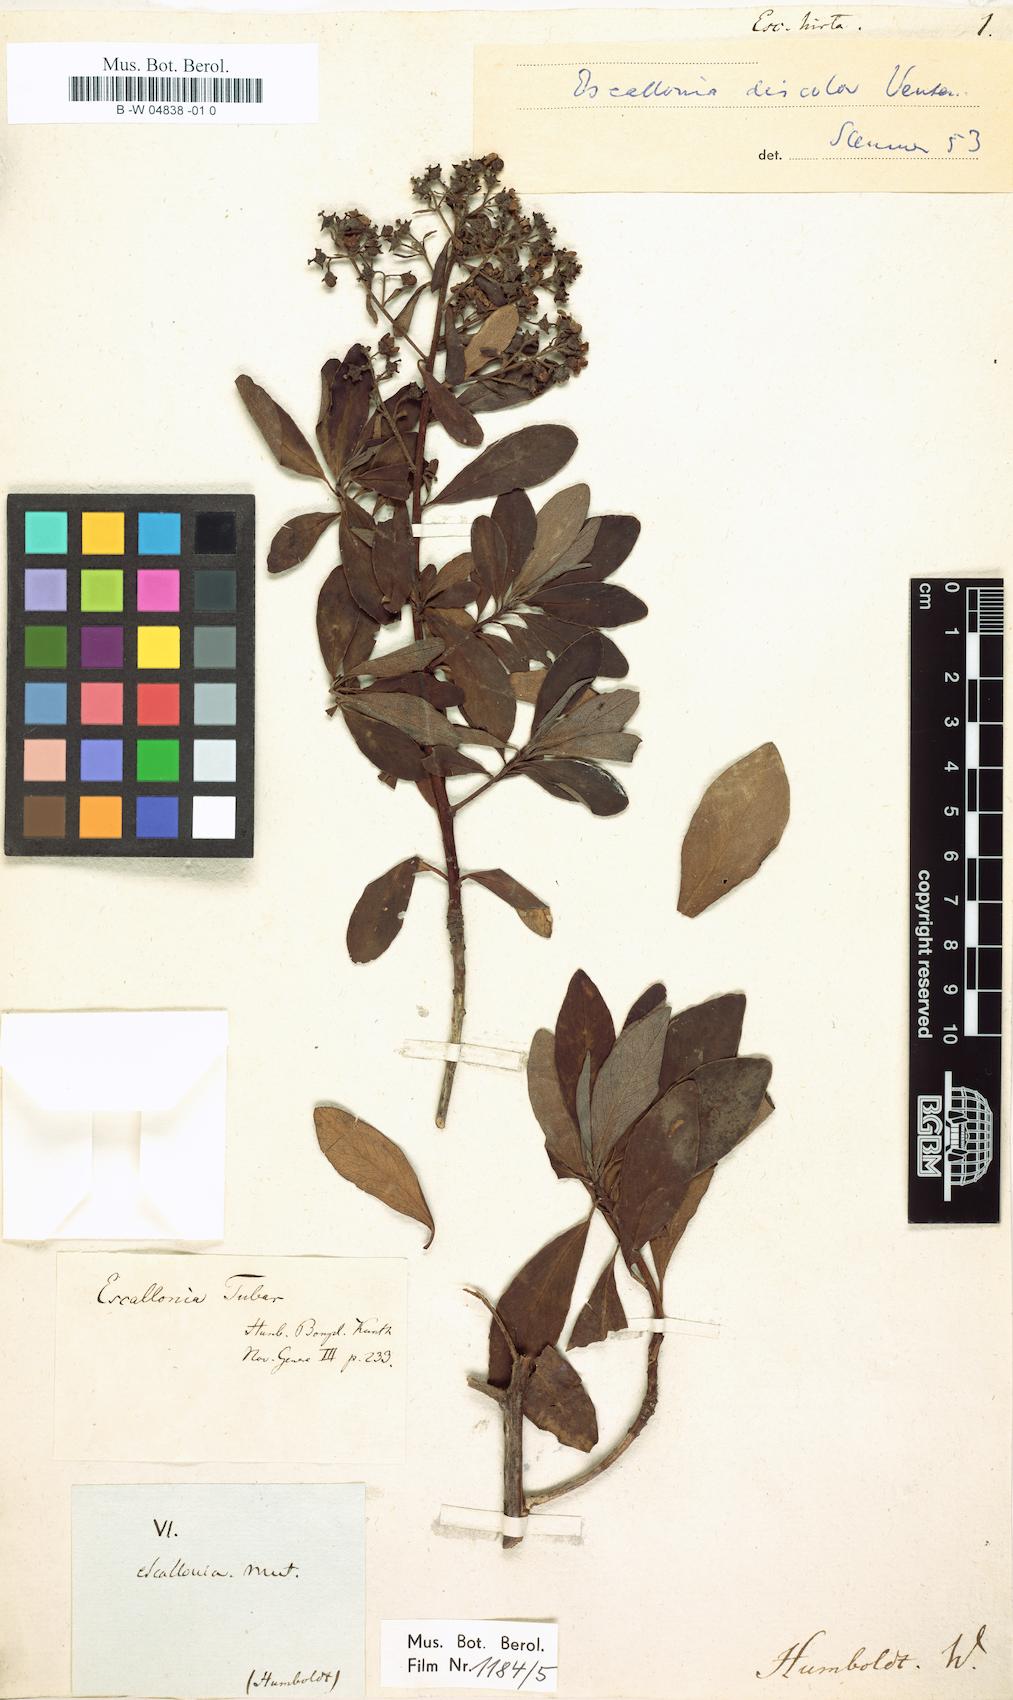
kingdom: Plantae
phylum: Tracheophyta
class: Magnoliopsida
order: Escalloniales
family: Escalloniaceae
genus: Escallonia
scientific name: Escallonia discolor
